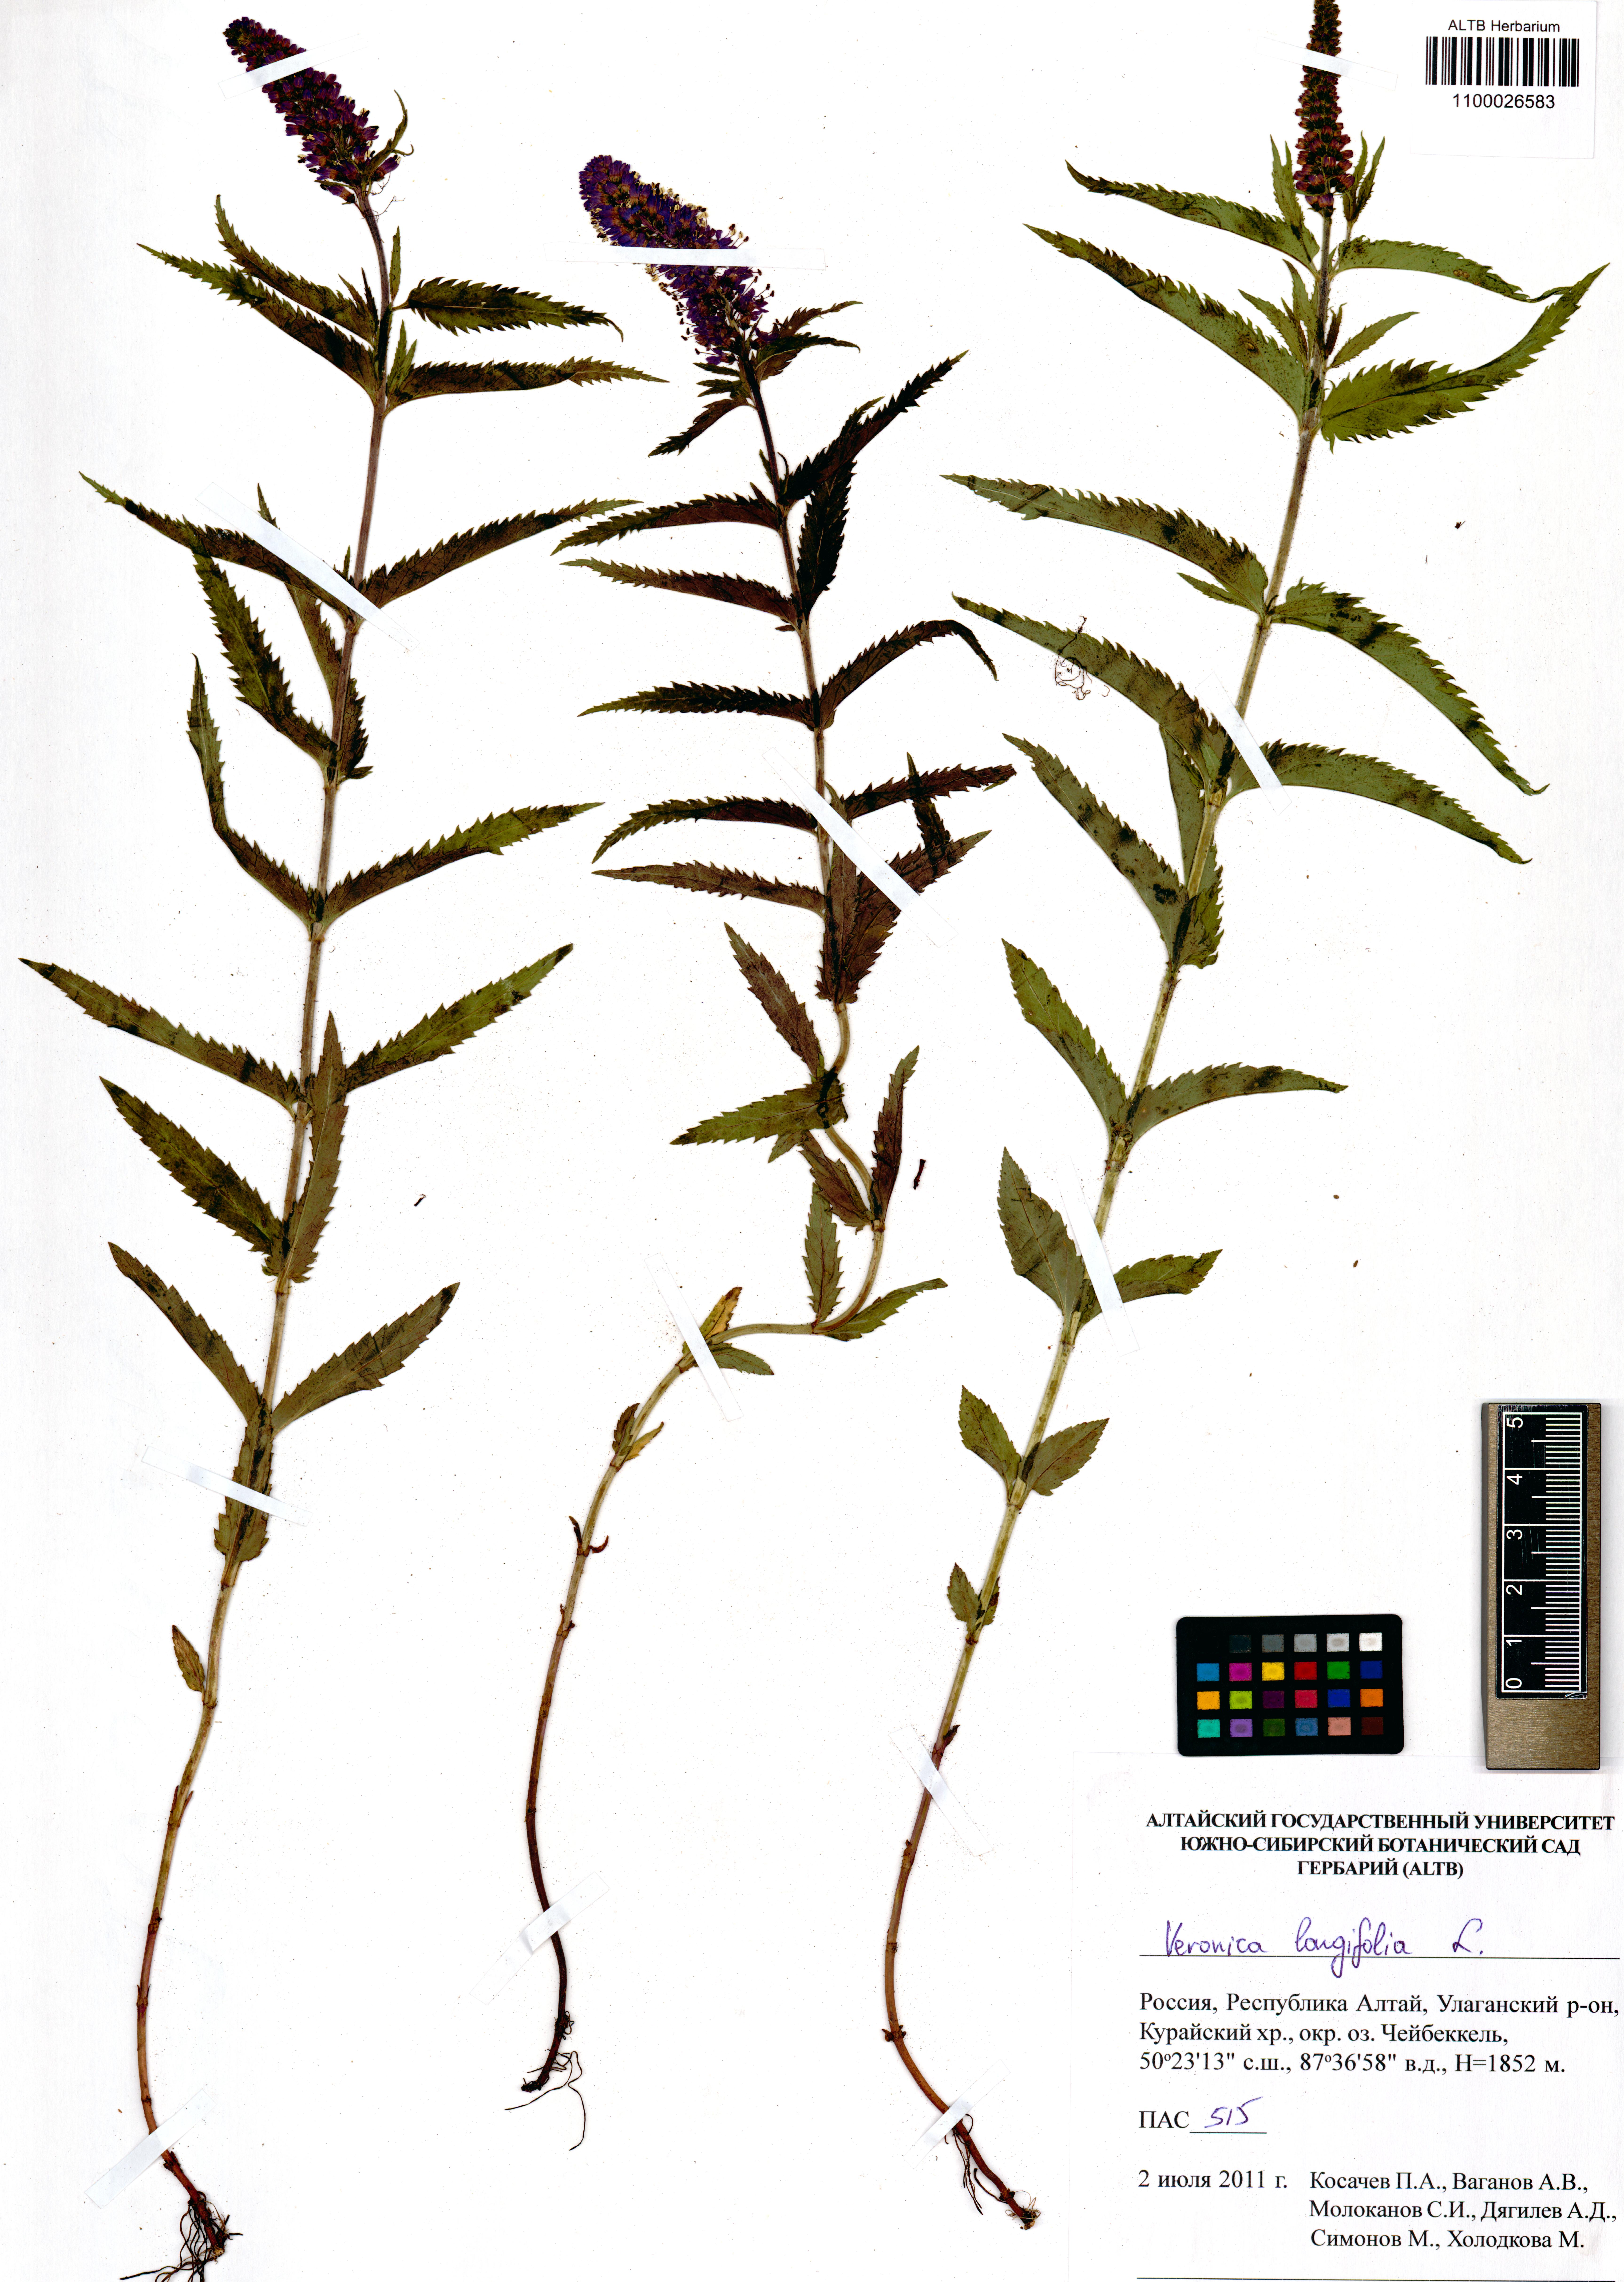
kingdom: Plantae
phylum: Tracheophyta
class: Magnoliopsida
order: Lamiales
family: Plantaginaceae
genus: Veronica
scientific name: Veronica longifolia
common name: Garden speedwell
